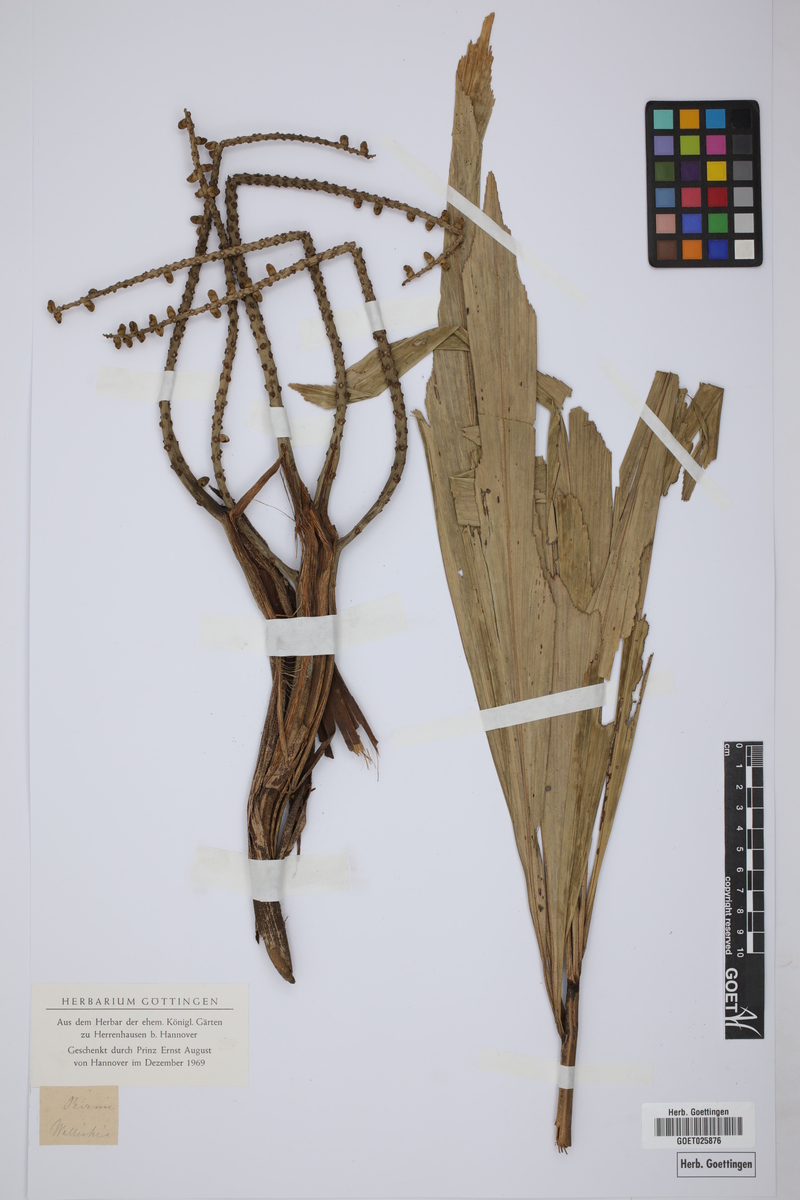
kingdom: Plantae
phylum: Tracheophyta
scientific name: Tracheophyta
